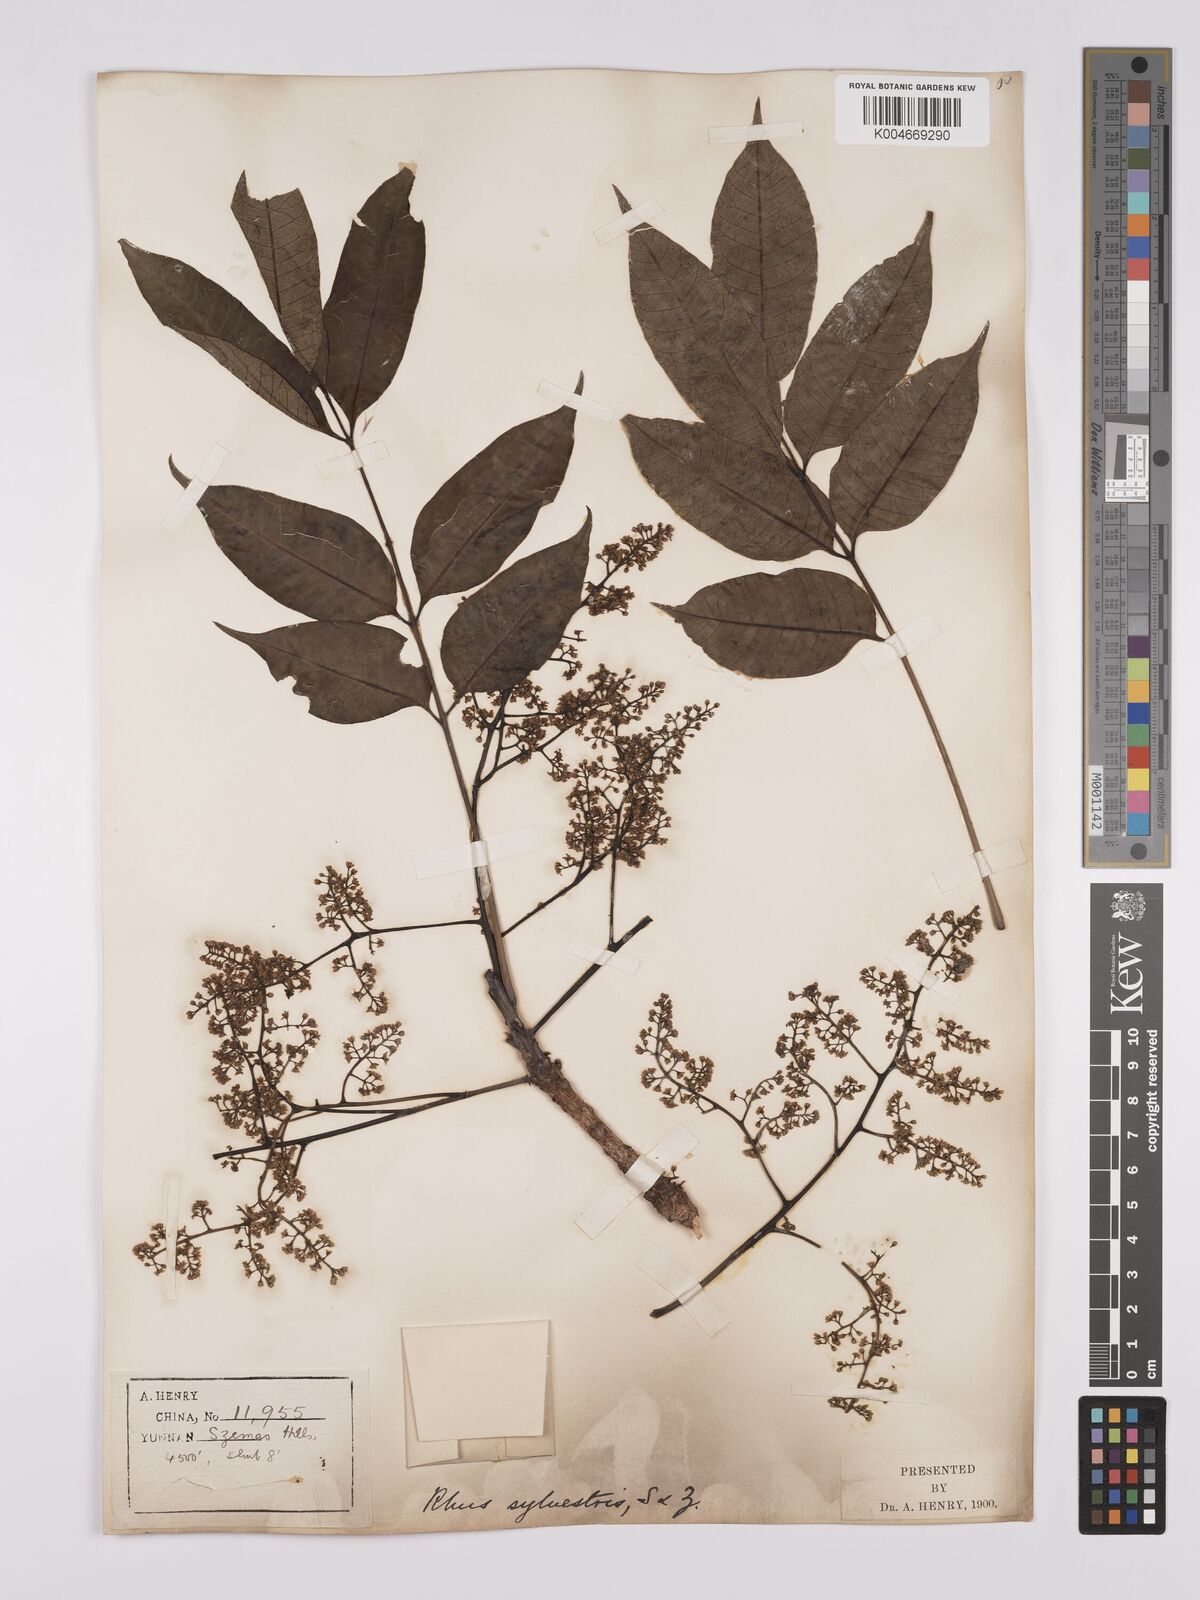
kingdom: Plantae
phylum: Tracheophyta
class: Magnoliopsida
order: Sapindales
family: Anacardiaceae
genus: Toxicodendron
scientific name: Toxicodendron succedaneum
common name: Wax tree
